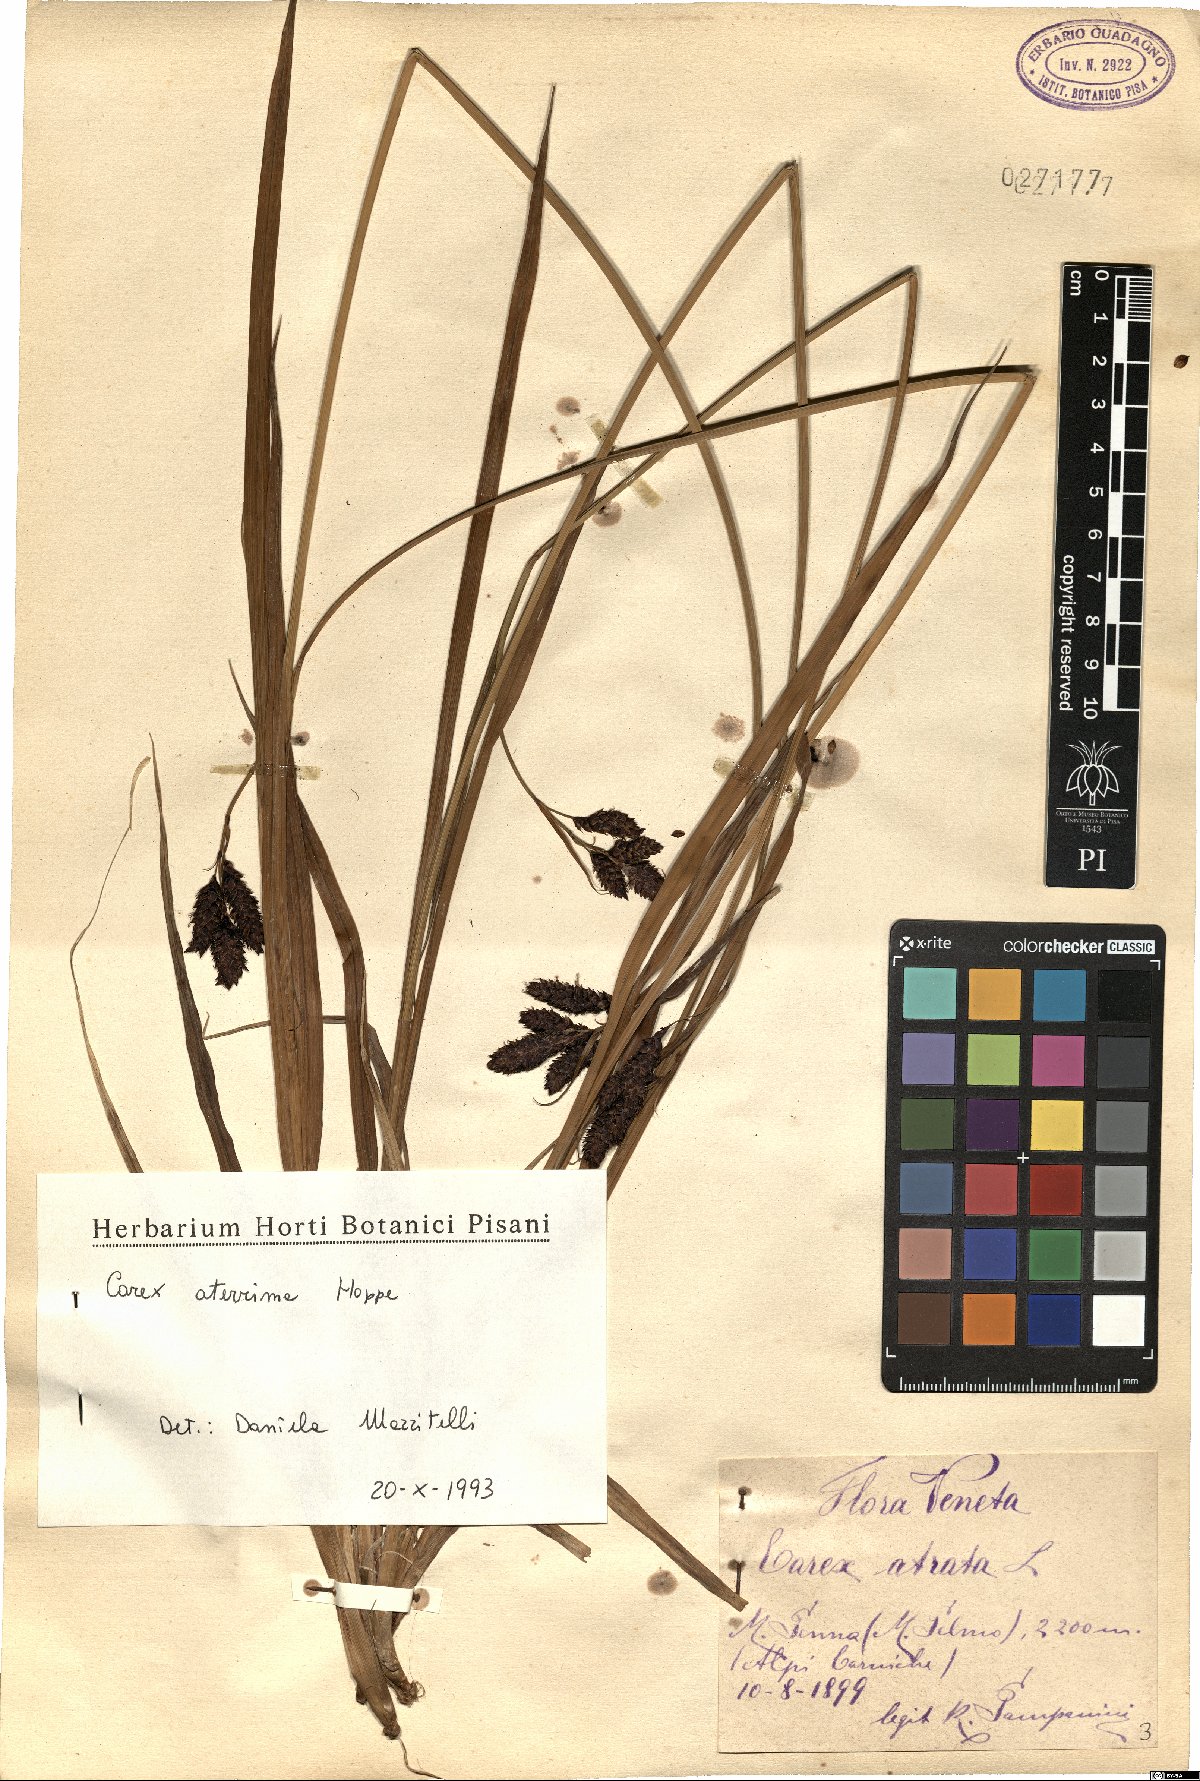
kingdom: Plantae
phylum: Tracheophyta
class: Liliopsida
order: Poales
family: Cyperaceae
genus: Carex
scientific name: Carex aterrima
